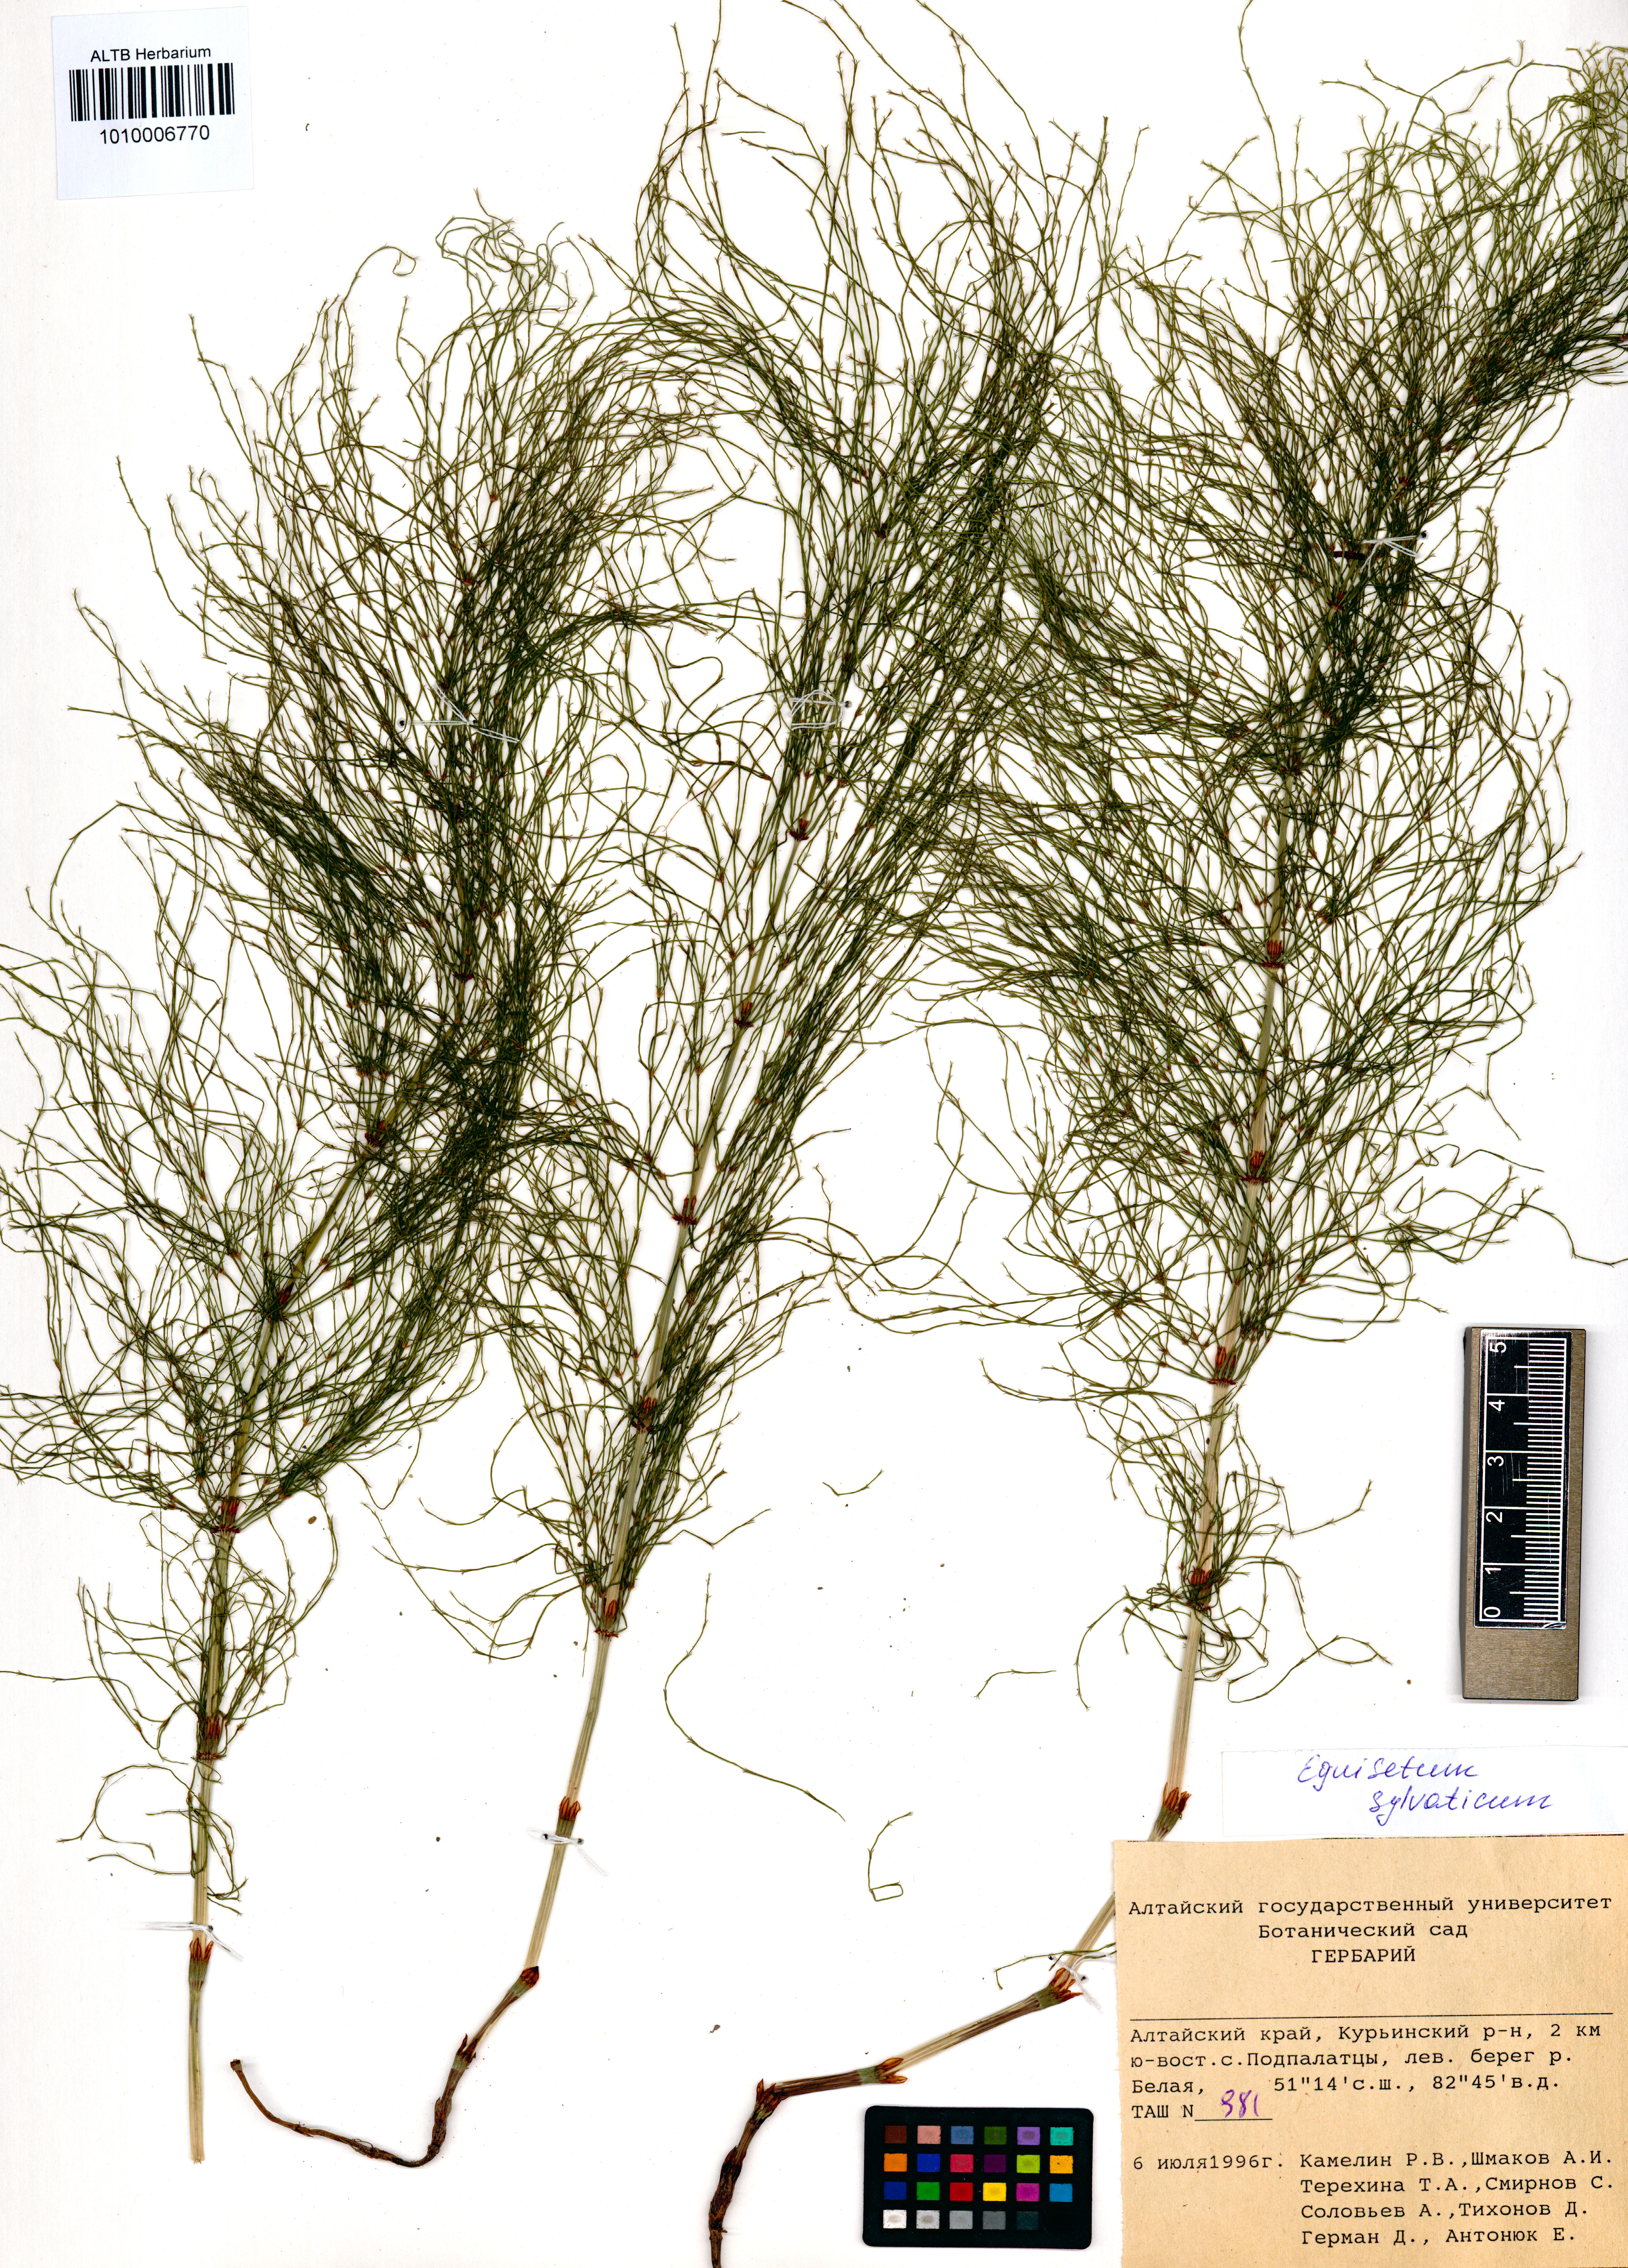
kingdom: Plantae
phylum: Tracheophyta
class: Polypodiopsida
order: Equisetales
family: Equisetaceae
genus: Equisetum
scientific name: Equisetum sylvaticum
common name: Wood horsetail
